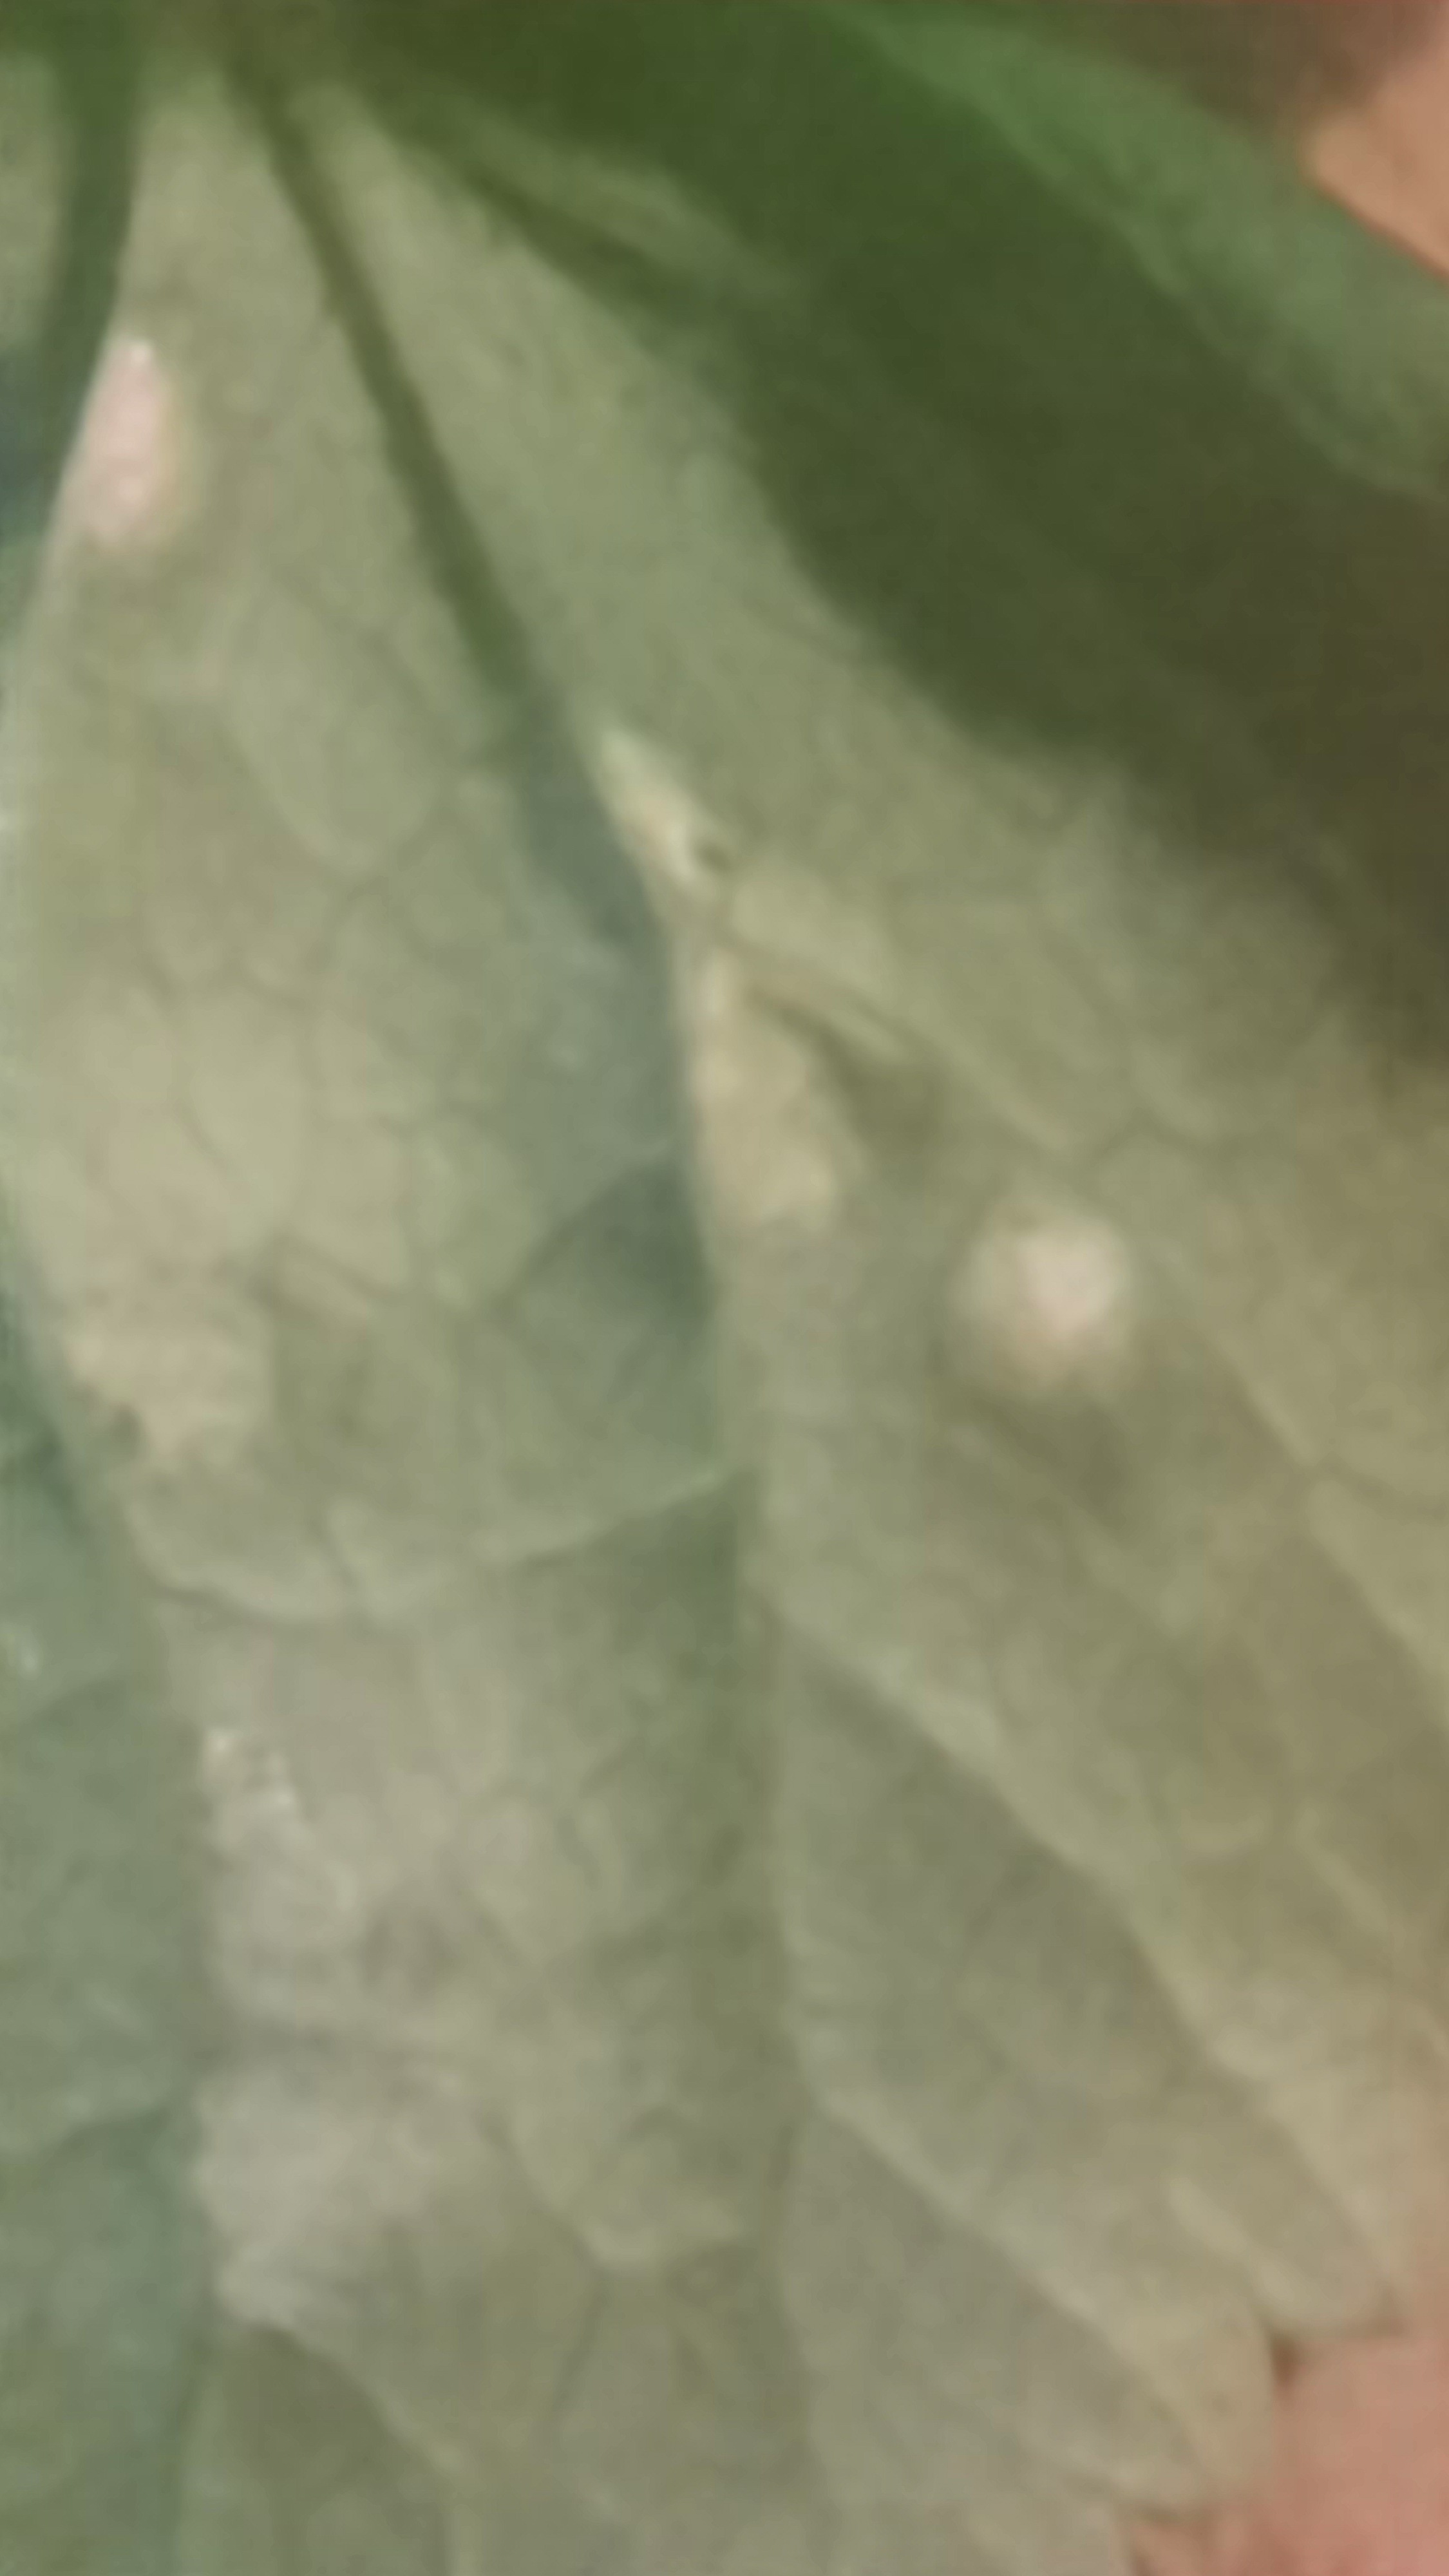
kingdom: Fungi
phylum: Ascomycota
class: Taphrinomycetes
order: Taphrinales
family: Taphrinaceae
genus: Protomyces
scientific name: Protomyces macrosporus
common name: skvalderkål-vablesæk
